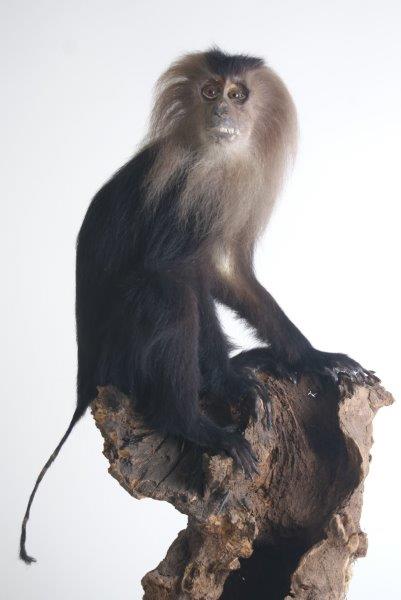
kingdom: Animalia
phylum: Chordata
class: Mammalia
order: Primates
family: Cercopithecidae
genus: Macaca
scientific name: Macaca silenus
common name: Lion-tailed Macaque
